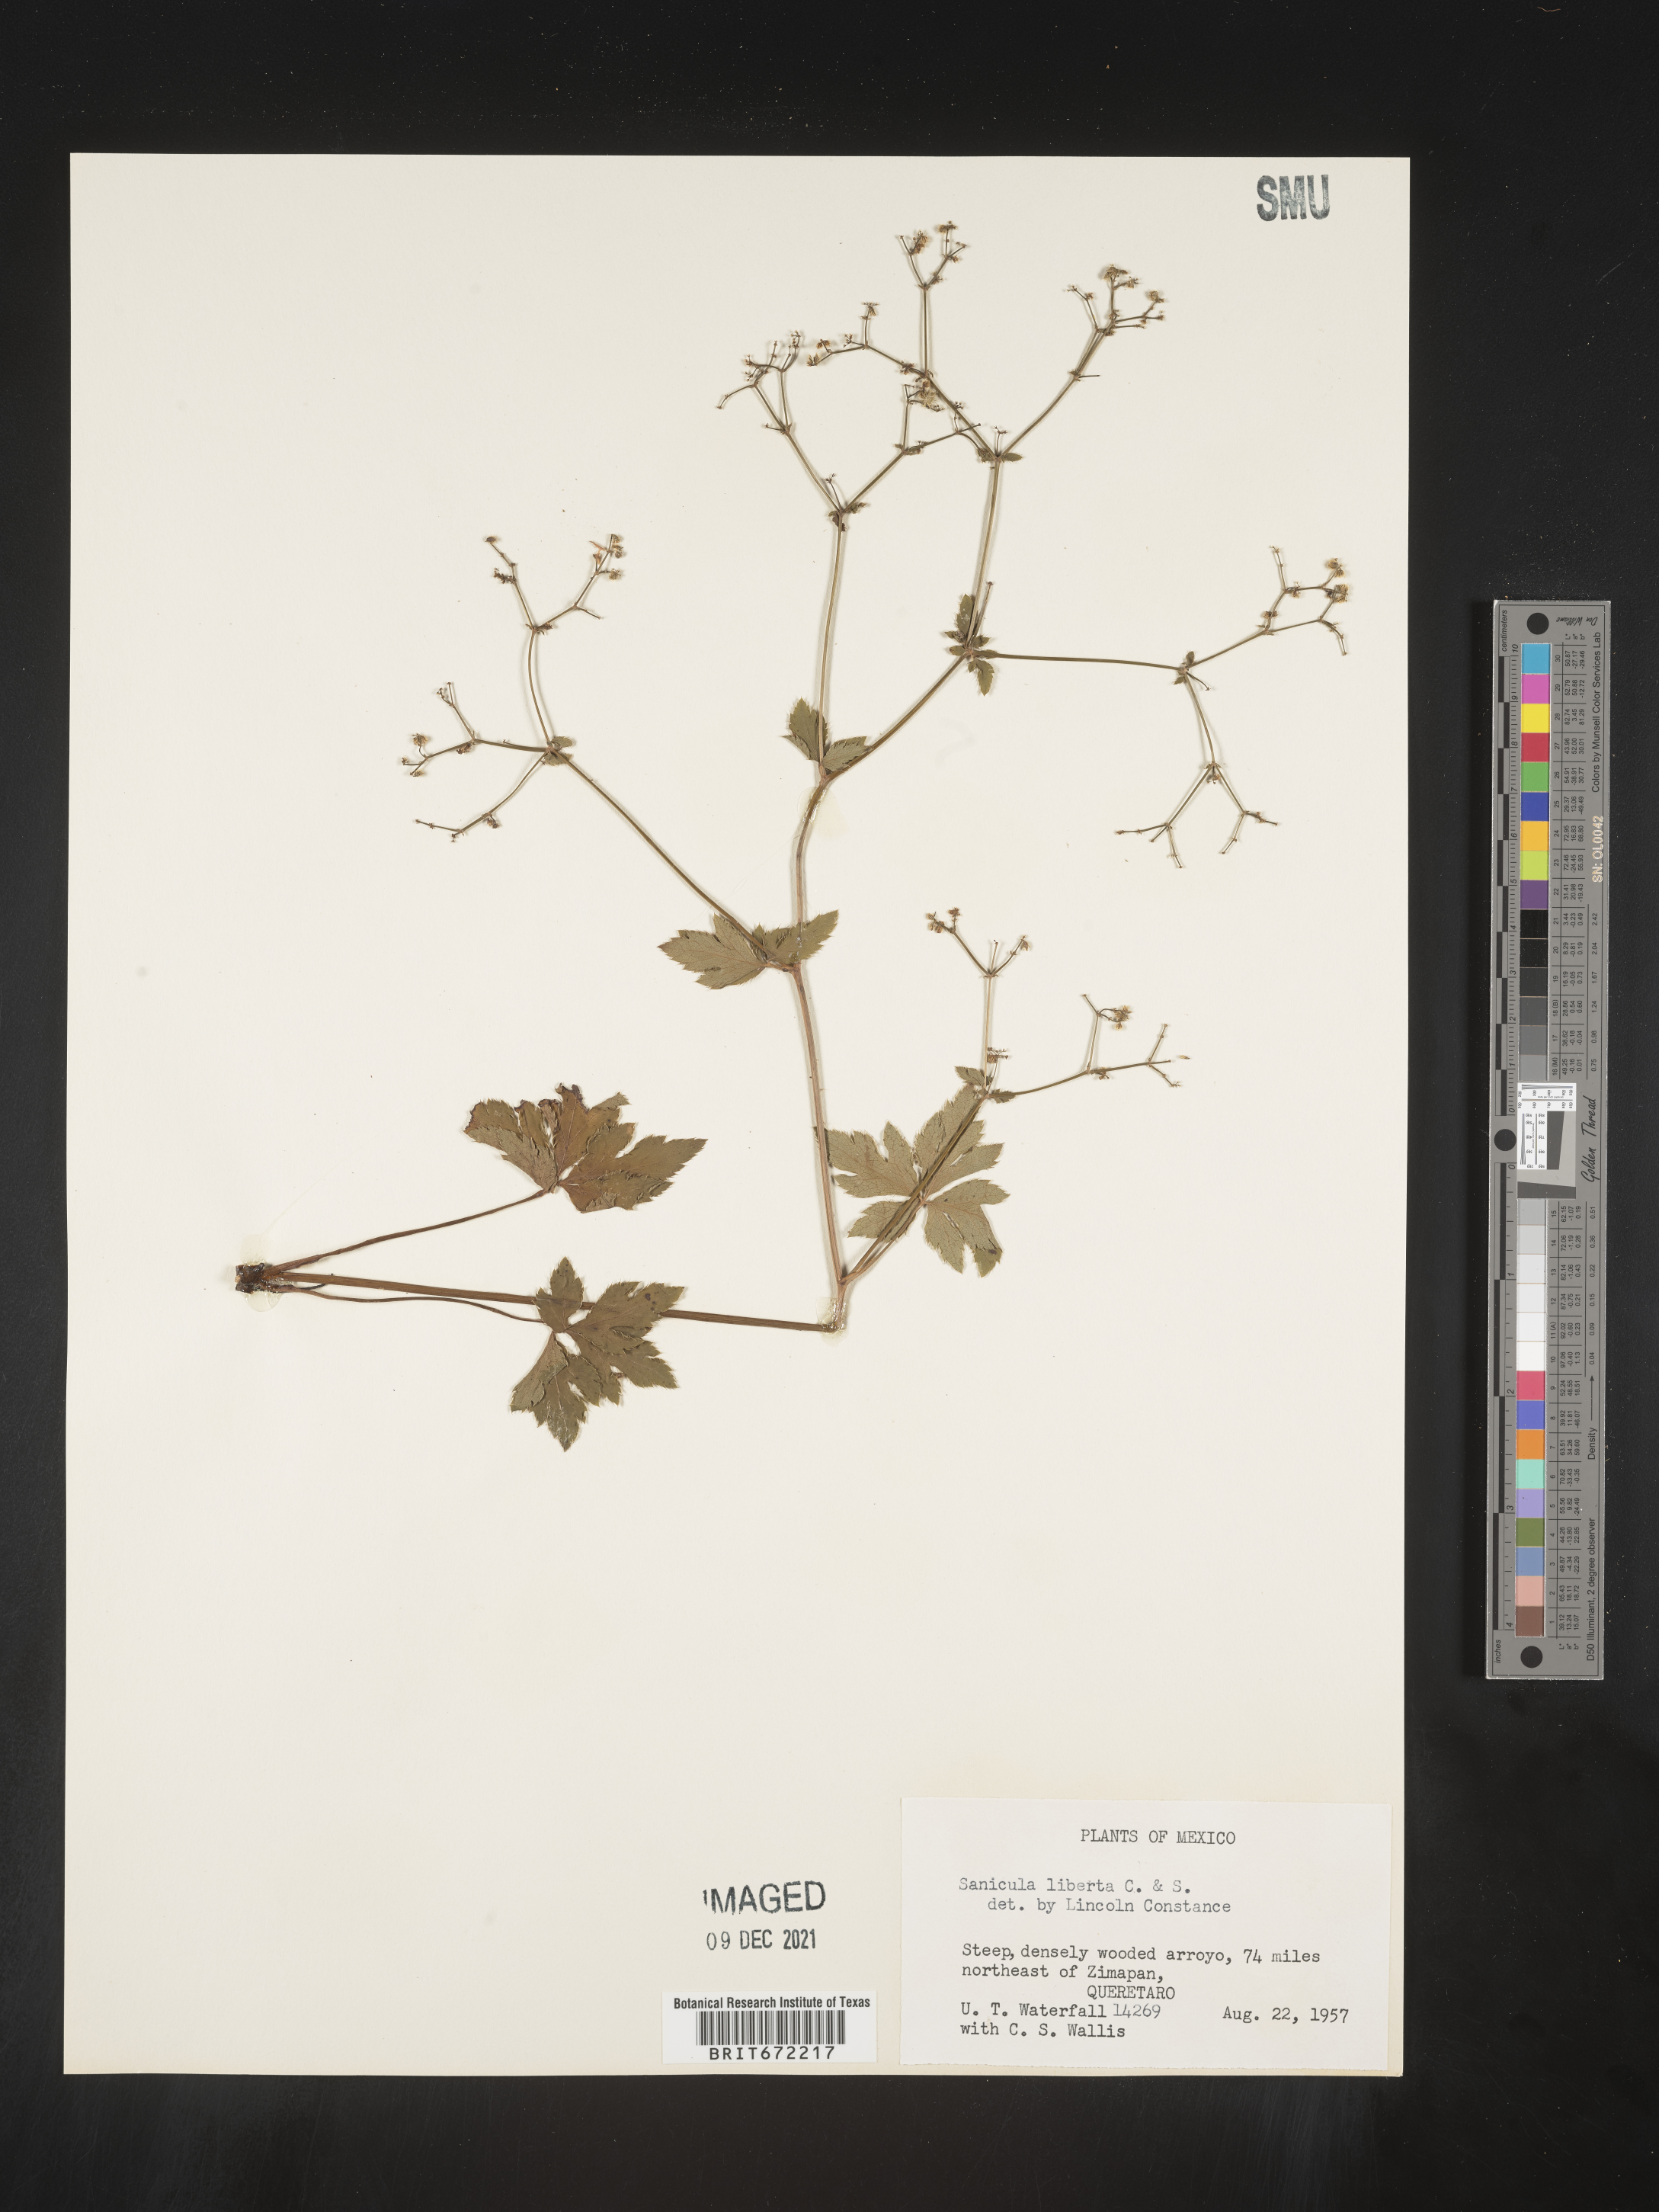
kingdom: Plantae
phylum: Tracheophyta
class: Magnoliopsida
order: Apiales
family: Apiaceae
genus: Sanicula
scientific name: Sanicula
